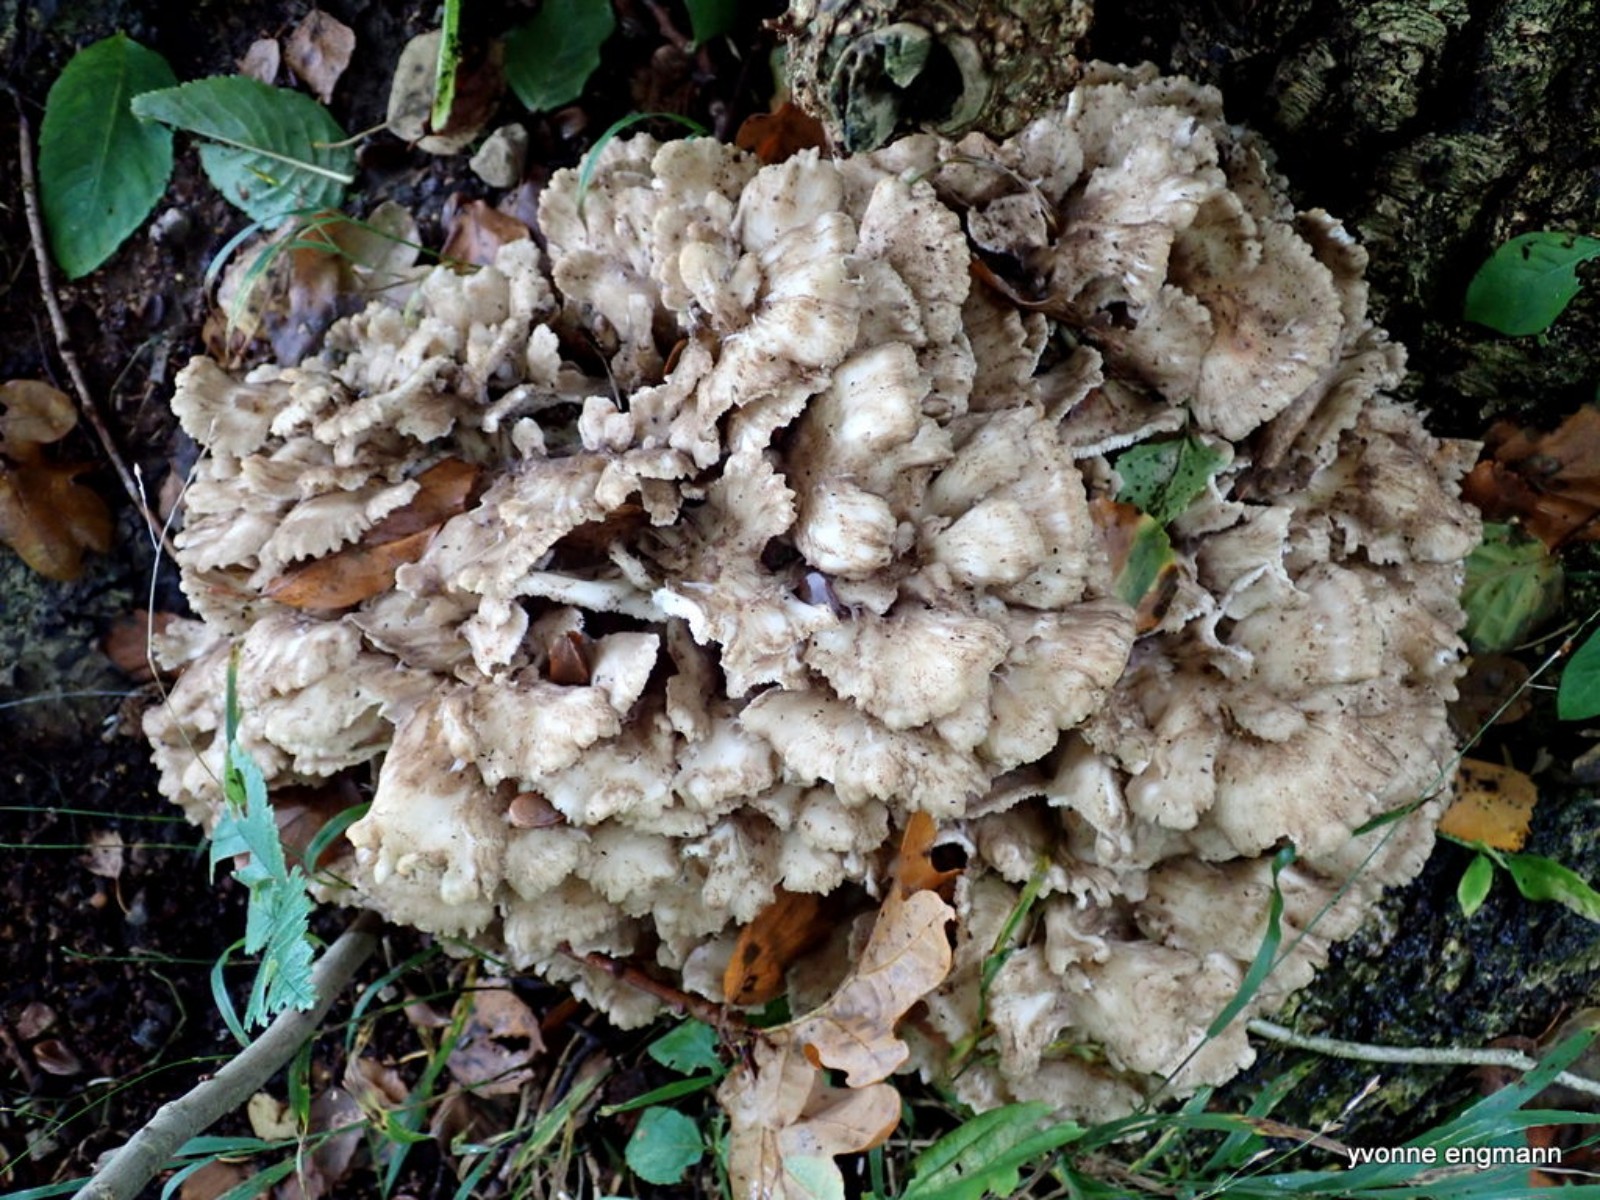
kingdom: Fungi
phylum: Basidiomycota
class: Agaricomycetes
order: Polyporales
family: Grifolaceae
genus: Grifola
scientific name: Grifola frondosa
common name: tueporesvamp
